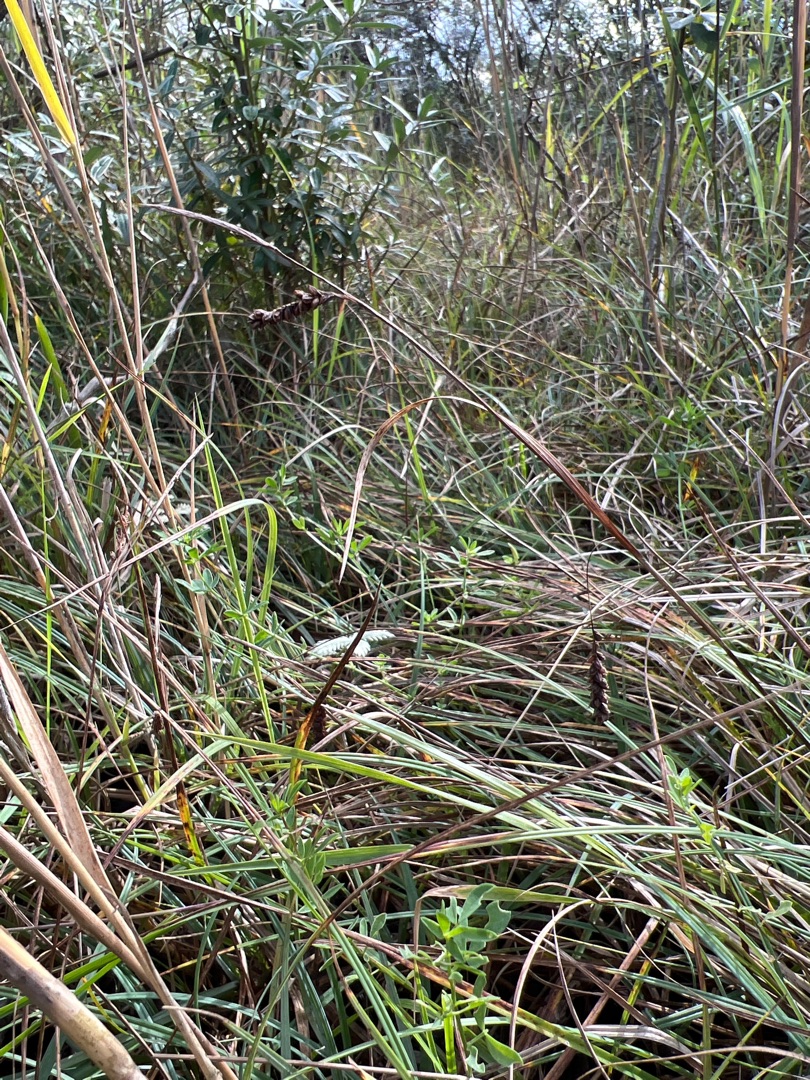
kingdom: Plantae
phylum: Tracheophyta
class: Liliopsida
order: Poales
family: Cyperaceae
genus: Carex
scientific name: Carex flacca
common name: Blågrøn star
